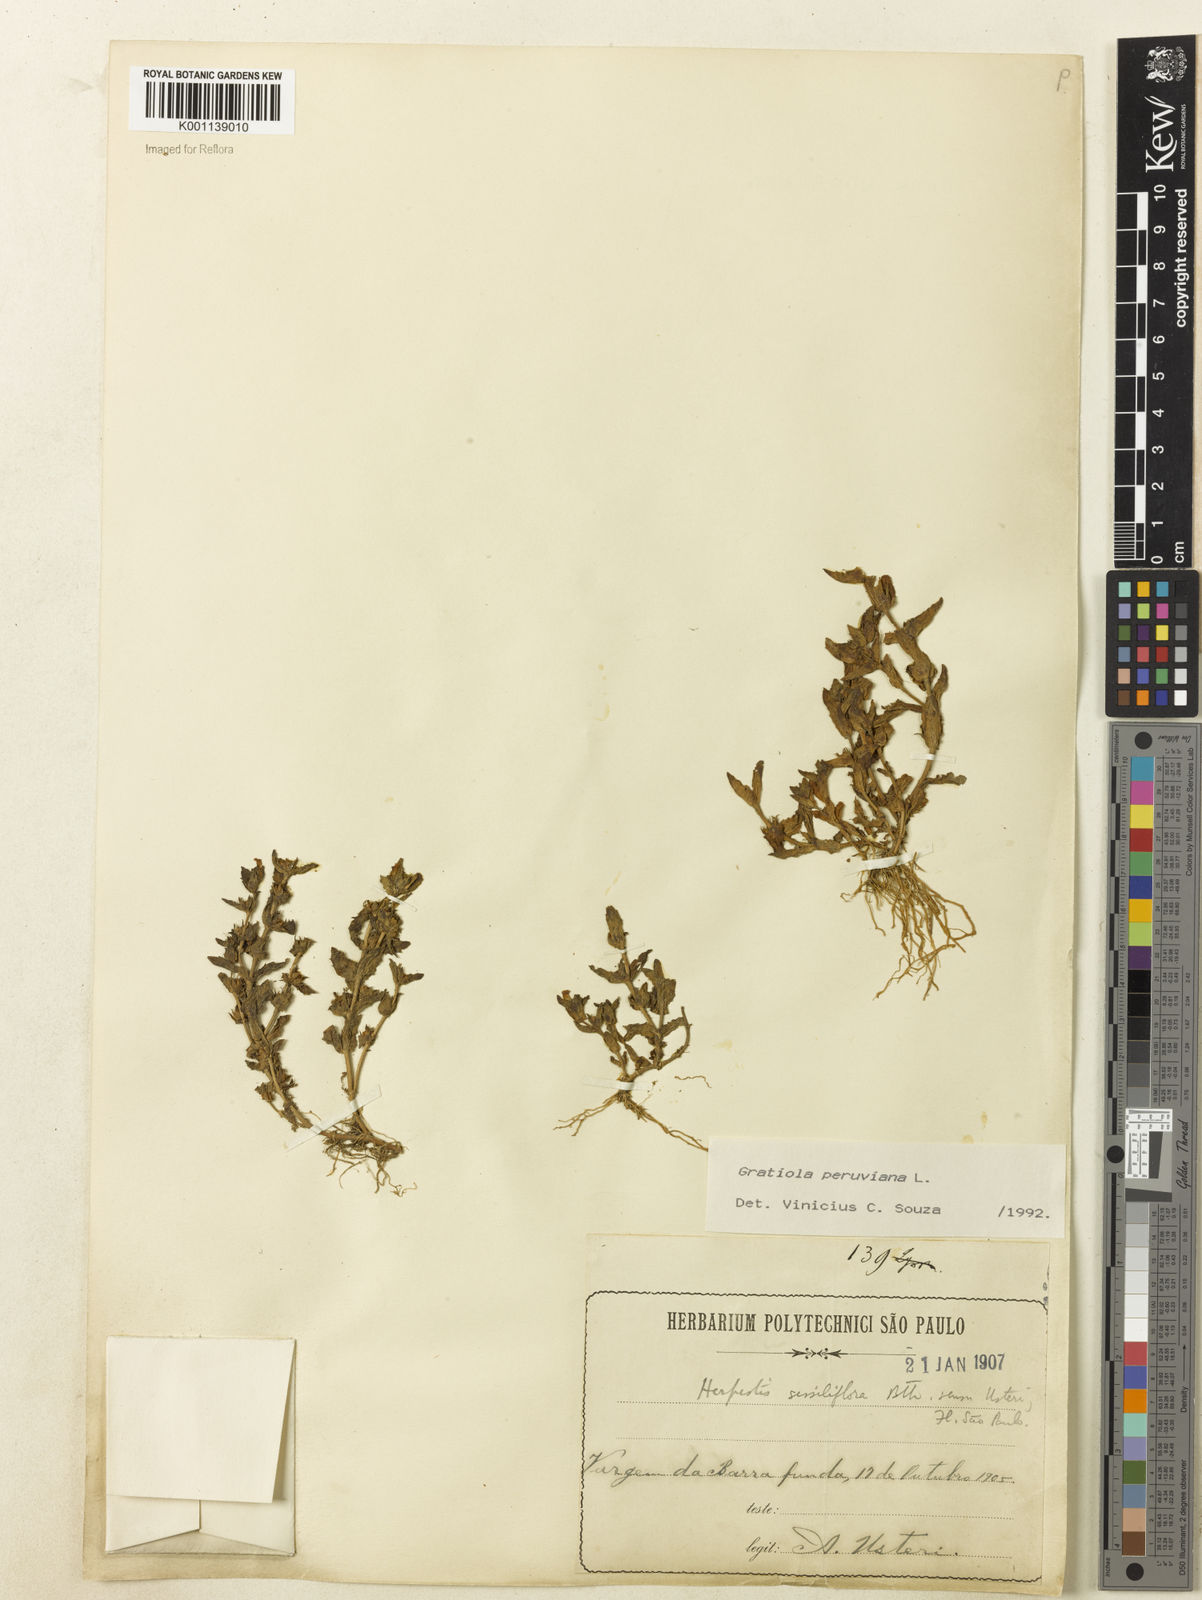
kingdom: Plantae
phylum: Tracheophyta
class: Magnoliopsida
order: Lamiales
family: Plantaginaceae
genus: Gratiola
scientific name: Gratiola peruviana
